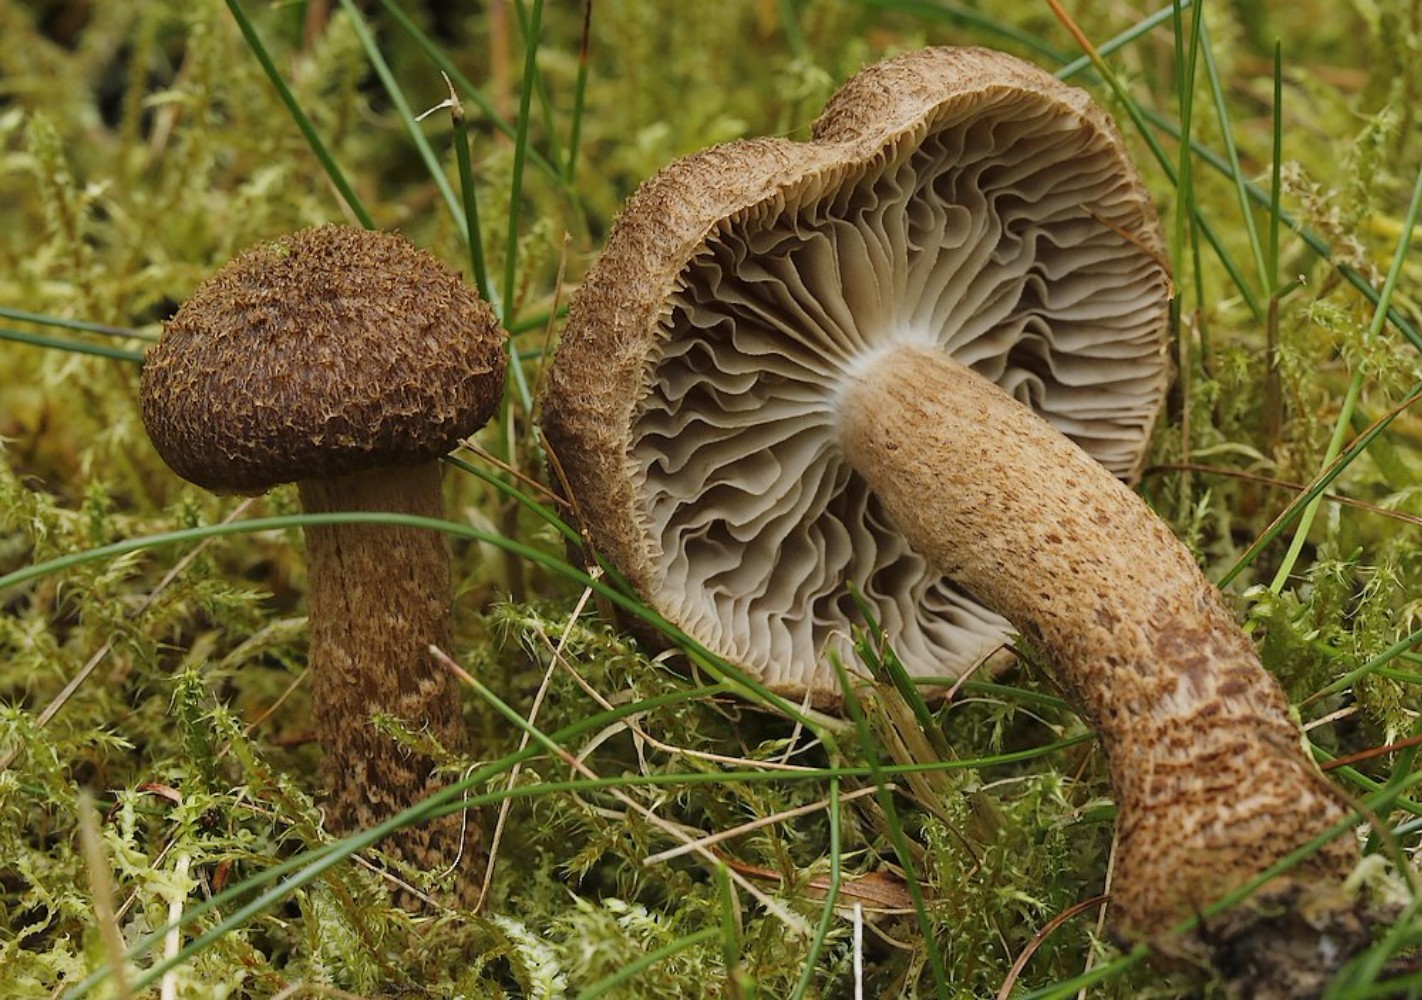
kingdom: Fungi
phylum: Basidiomycota
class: Agaricomycetes
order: Agaricales
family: Inocybaceae
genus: Inocybe
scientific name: Inocybe
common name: trævlhat
